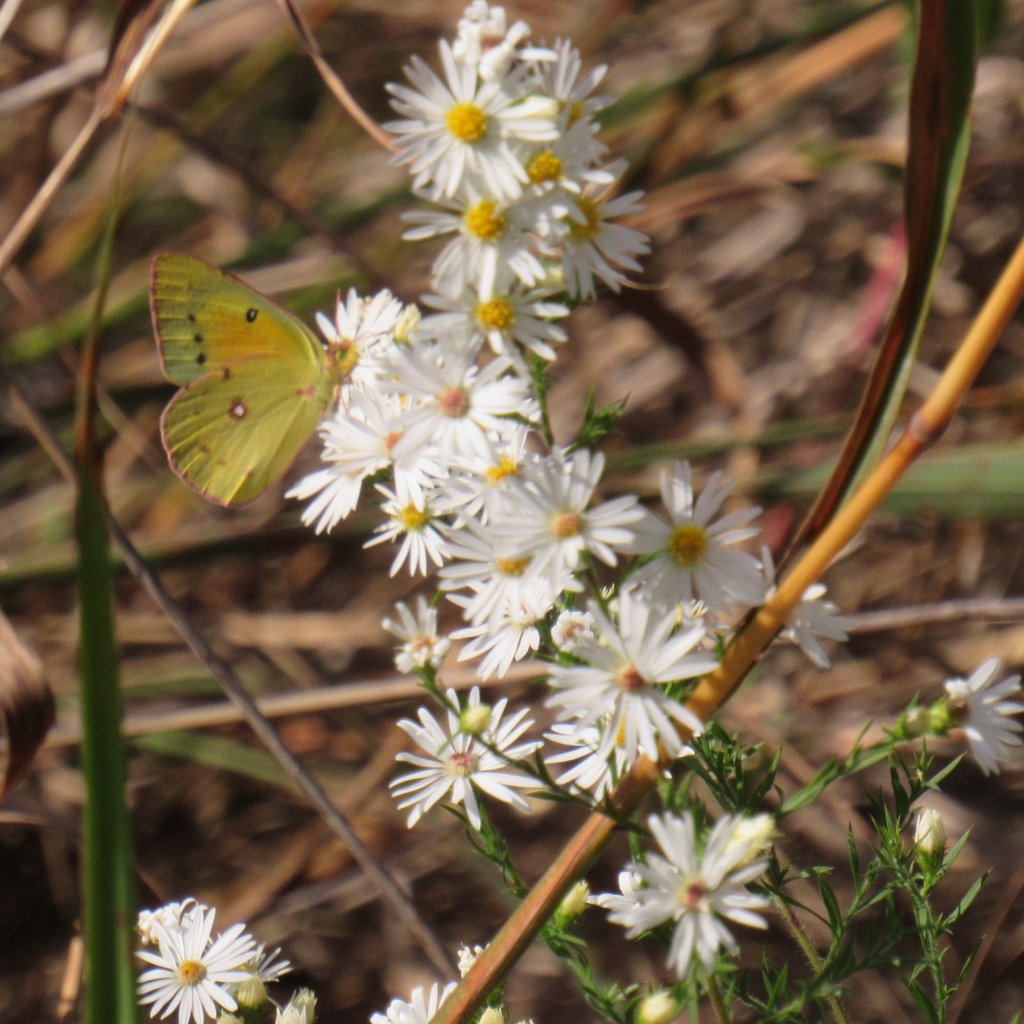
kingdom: Animalia
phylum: Arthropoda
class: Insecta
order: Lepidoptera
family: Pieridae
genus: Colias
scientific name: Colias eurytheme
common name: Orange Sulphur
